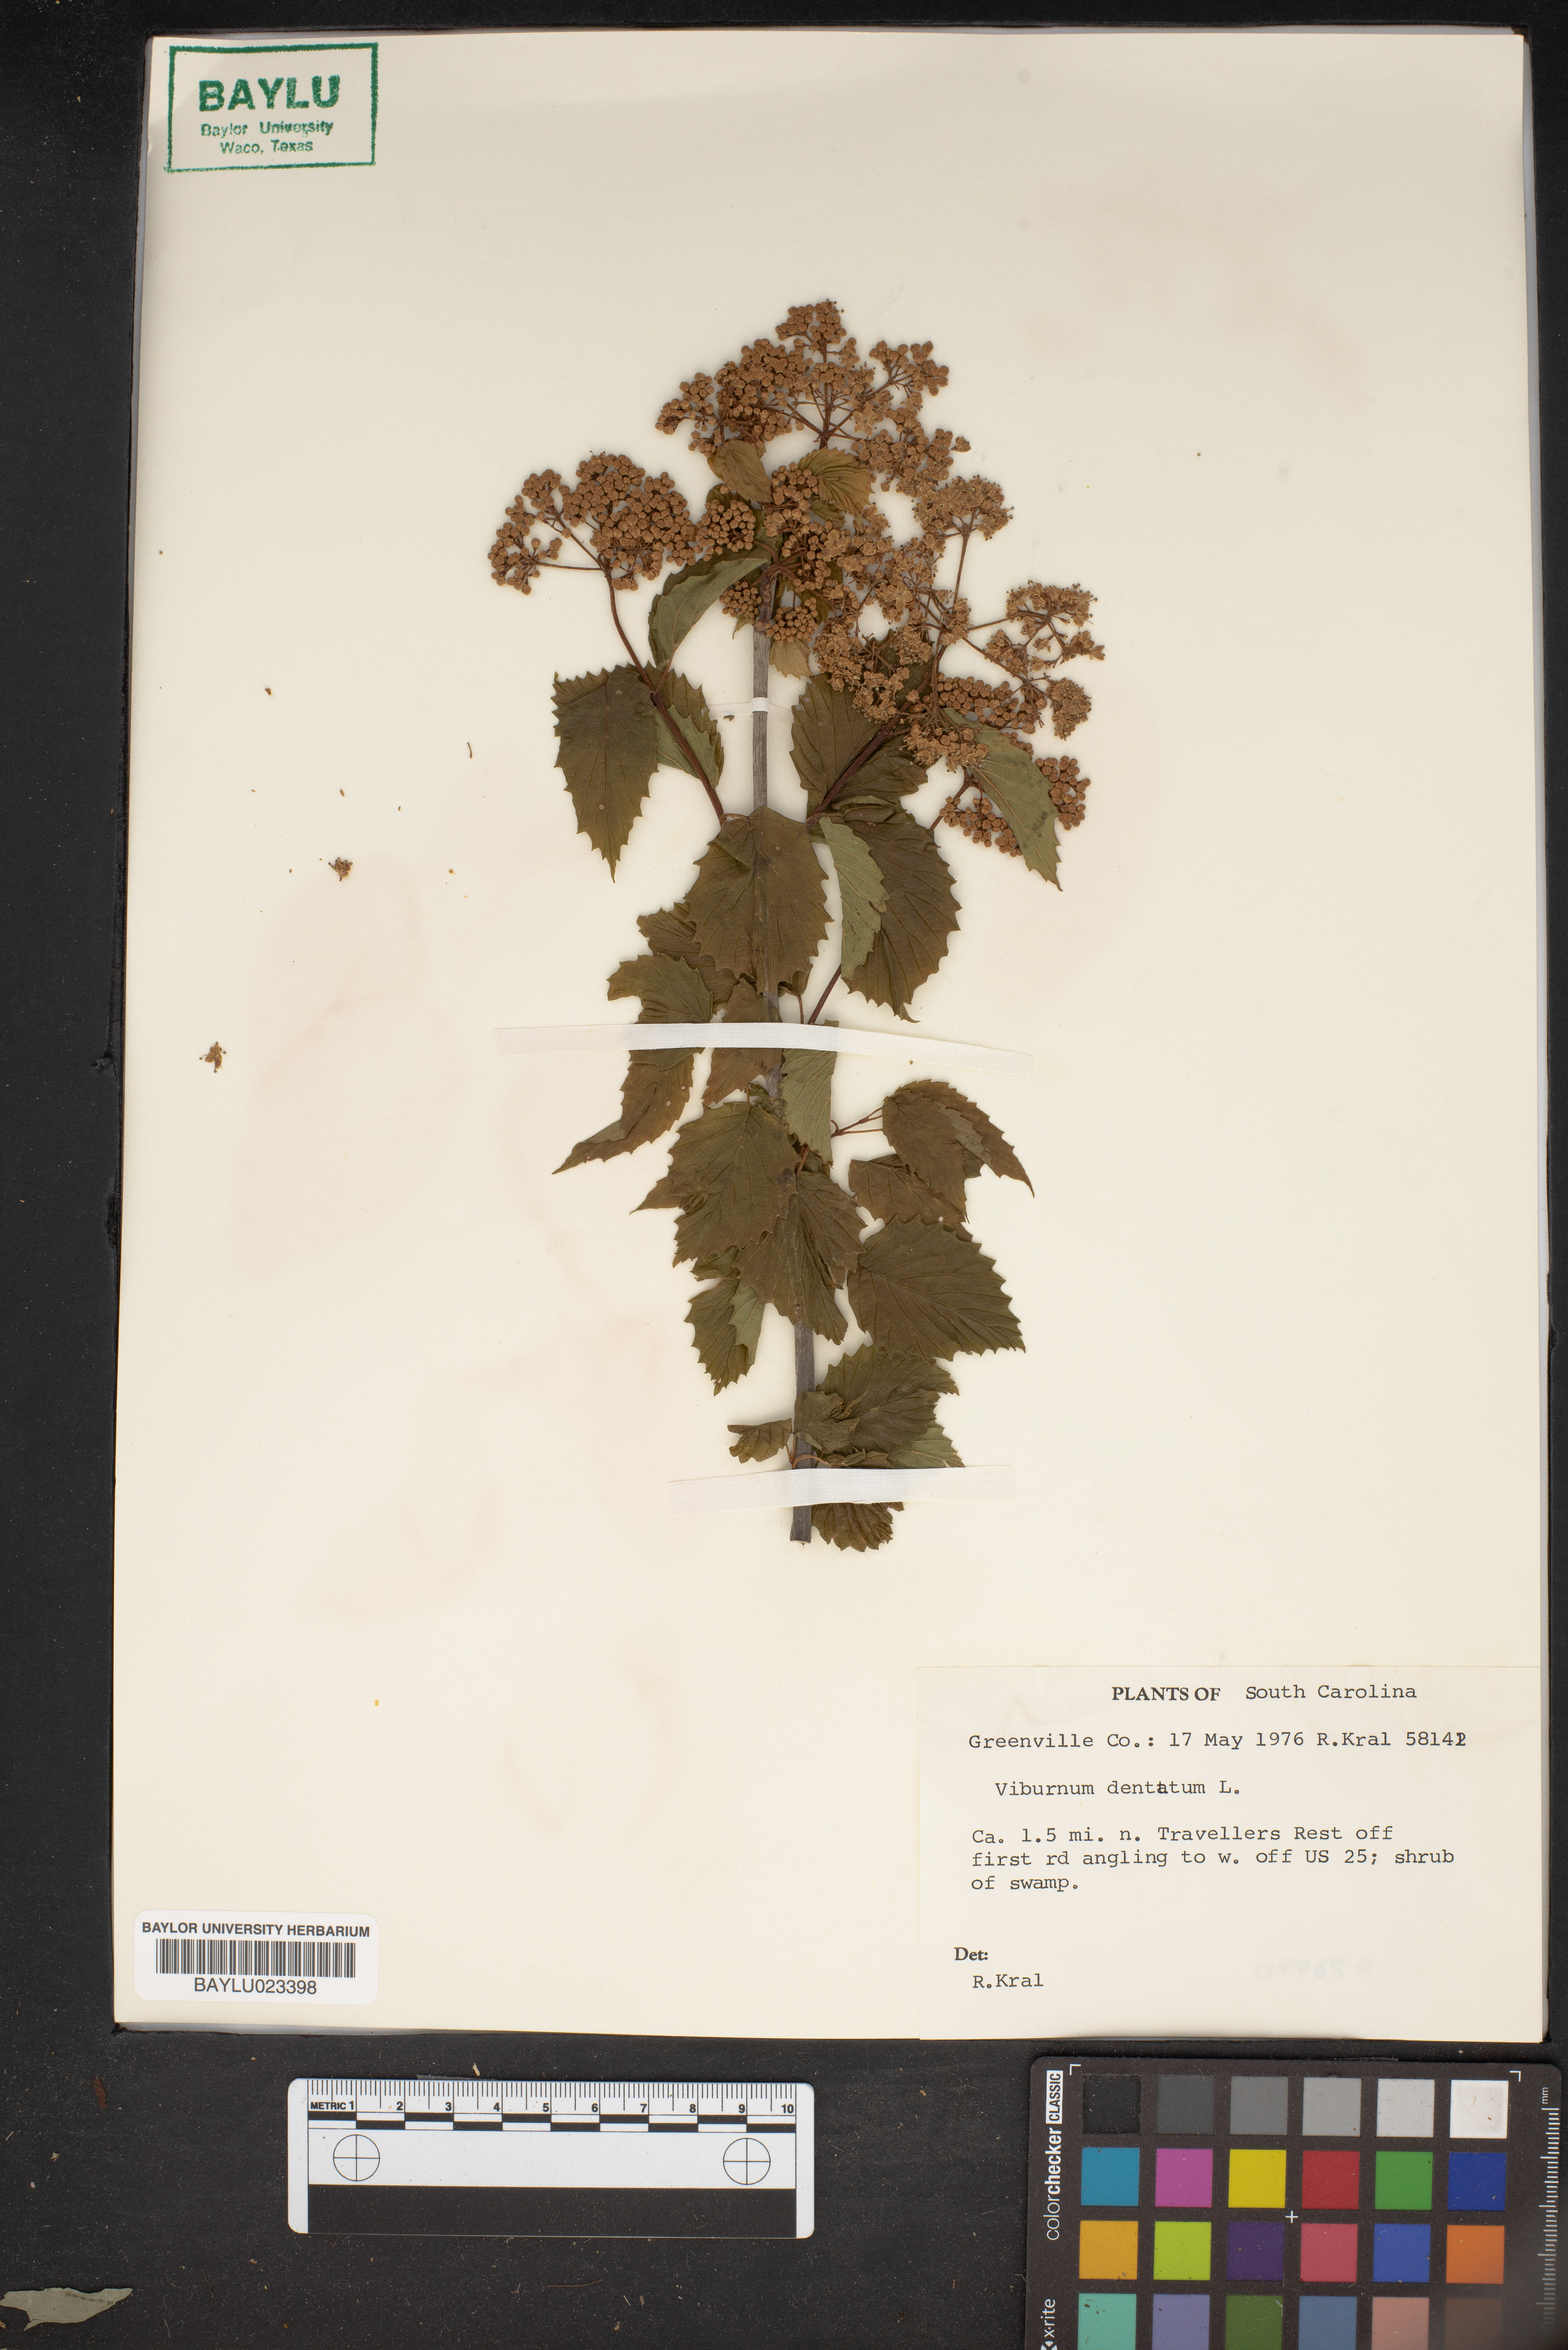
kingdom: Plantae
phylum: Tracheophyta
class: Magnoliopsida
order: Dipsacales
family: Viburnaceae
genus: Viburnum
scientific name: Viburnum dentatum
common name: Arrow-wood
